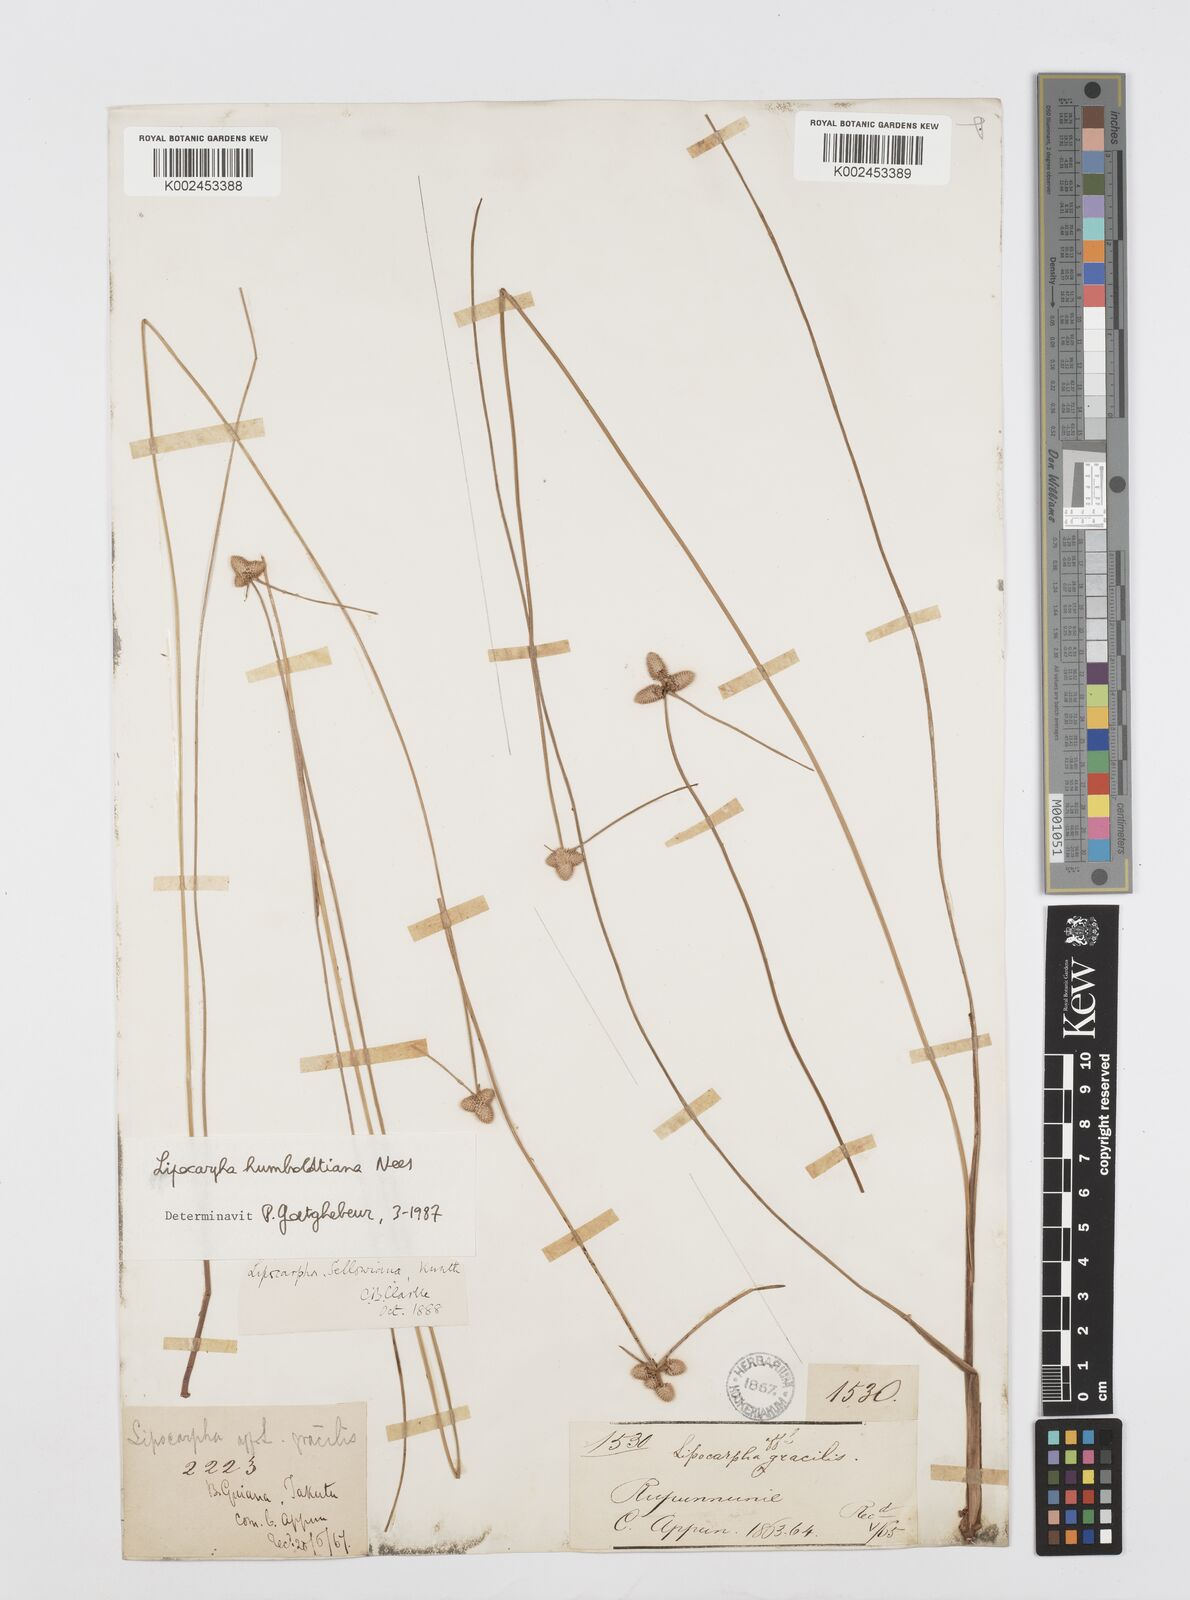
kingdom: Plantae
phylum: Tracheophyta
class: Liliopsida
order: Poales
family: Cyperaceae
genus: Cyperus
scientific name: Cyperus lanceolatus
